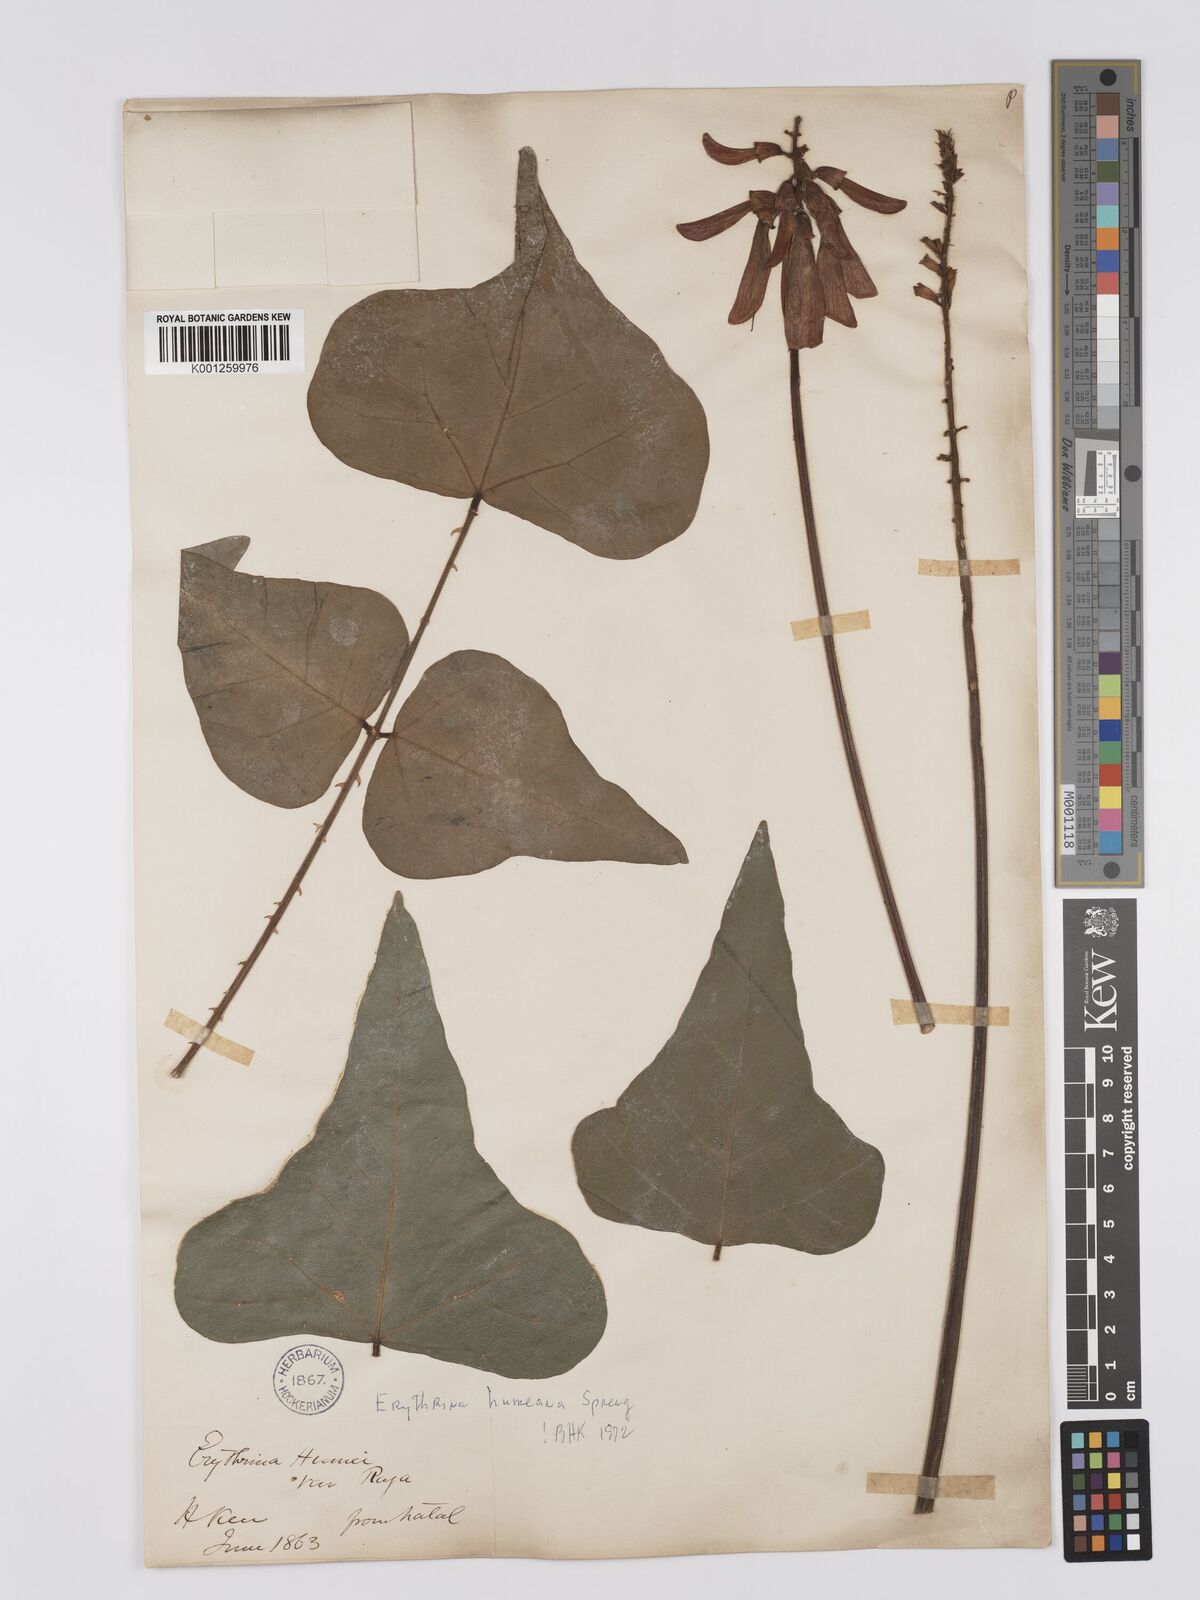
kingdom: Plantae
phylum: Tracheophyta
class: Magnoliopsida
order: Fabales
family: Fabaceae
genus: Erythrina
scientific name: Erythrina humeana
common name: Dwarf coral tree
